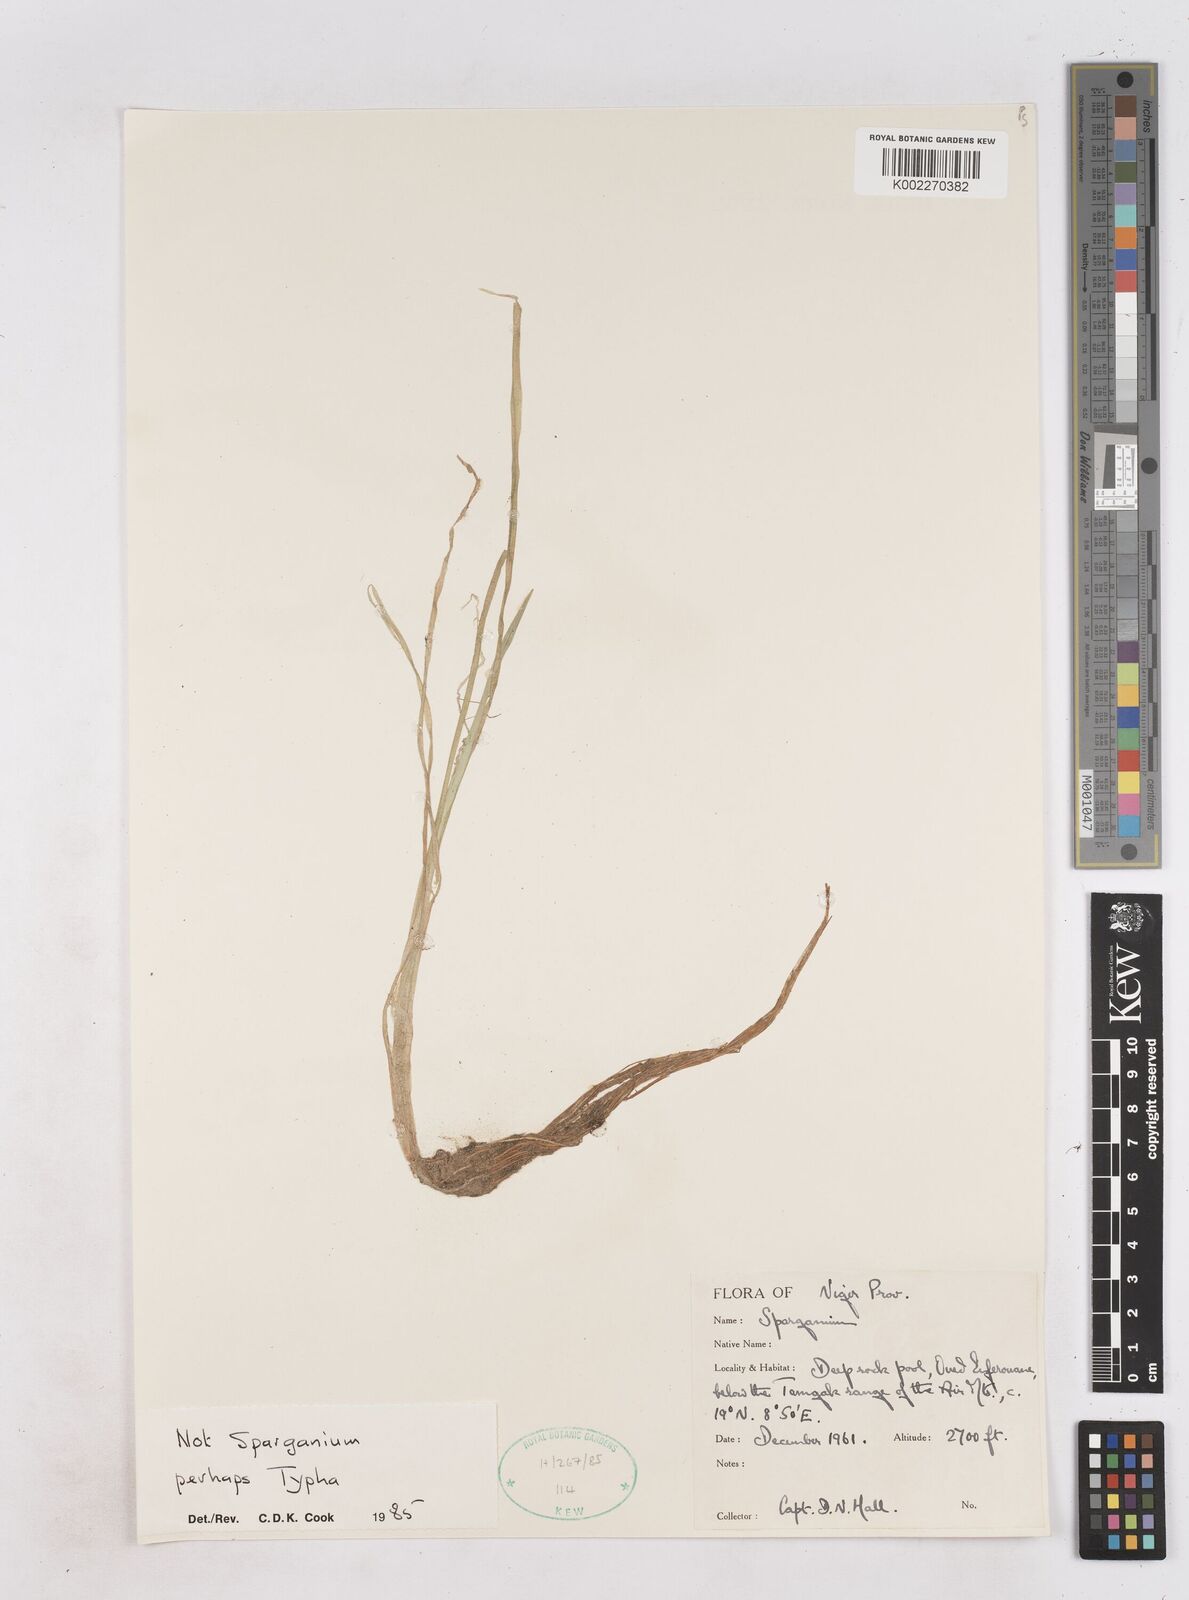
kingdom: Plantae
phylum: Tracheophyta
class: Liliopsida
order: Poales
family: Typhaceae
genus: Sparganium
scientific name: Sparganium subglobosum
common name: Burr­-reed
